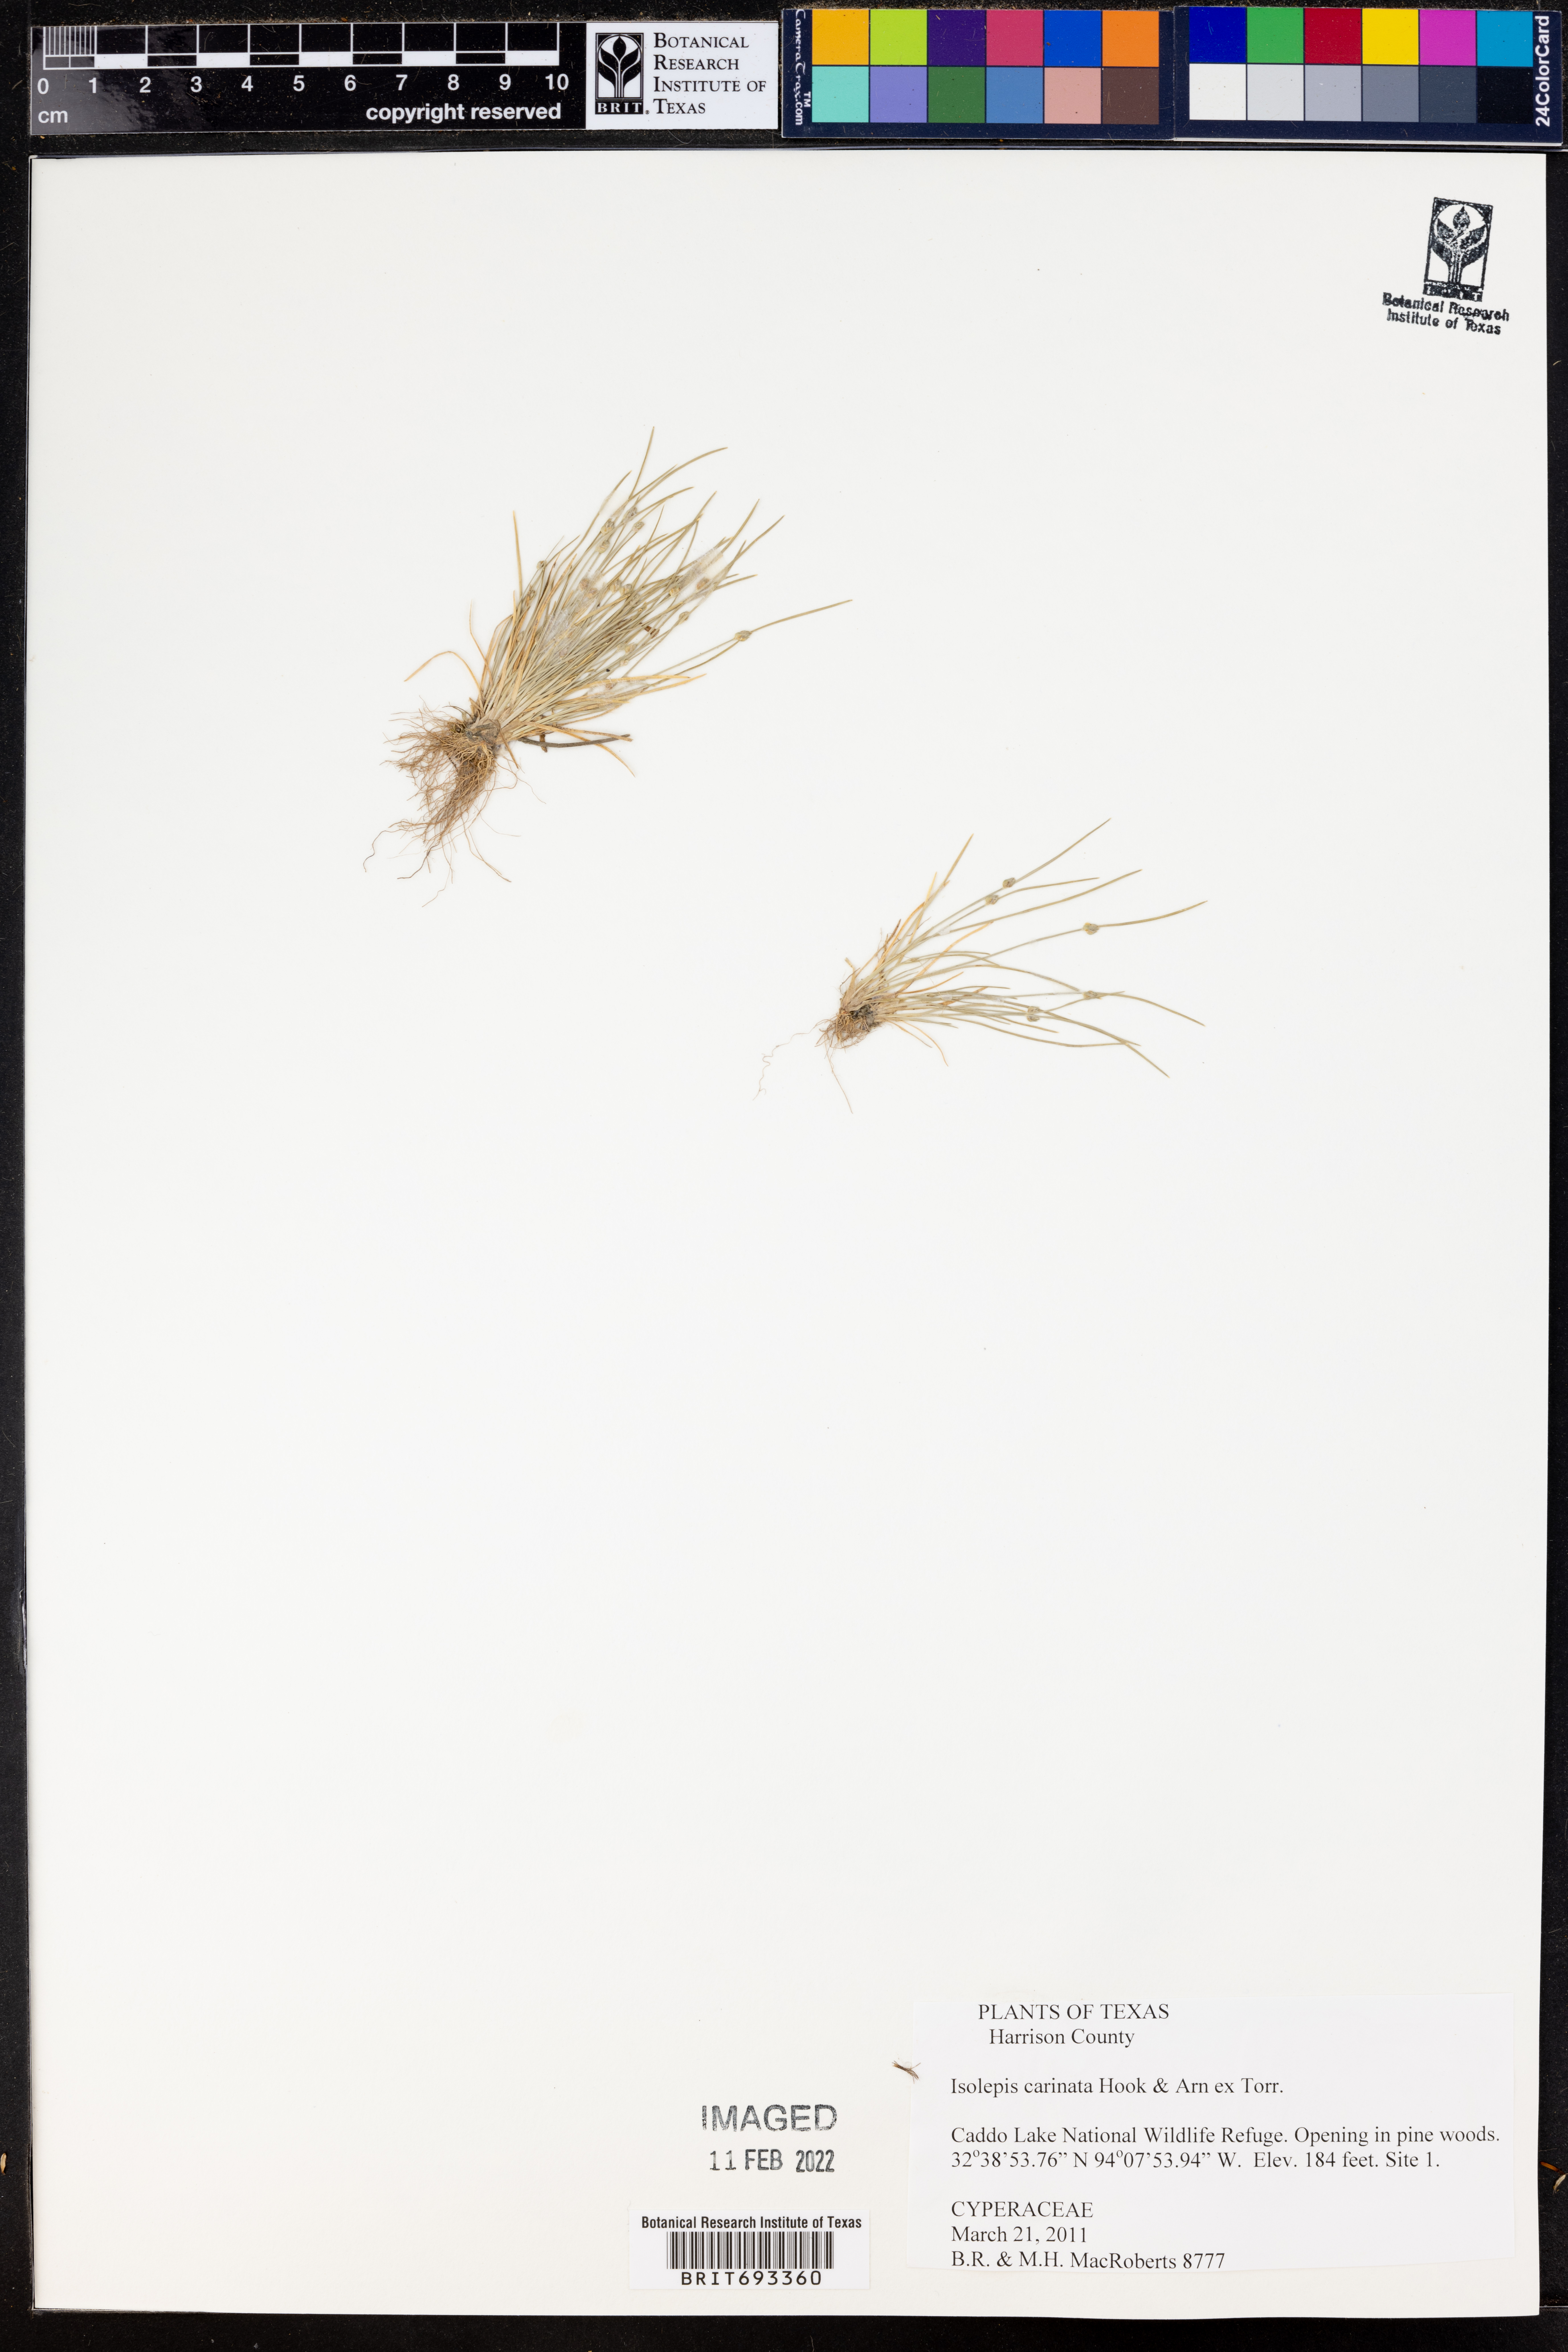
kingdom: Plantae
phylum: Tracheophyta
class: Liliopsida
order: Poales
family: Cyperaceae
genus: Isolepis
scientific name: Isolepis carinata
